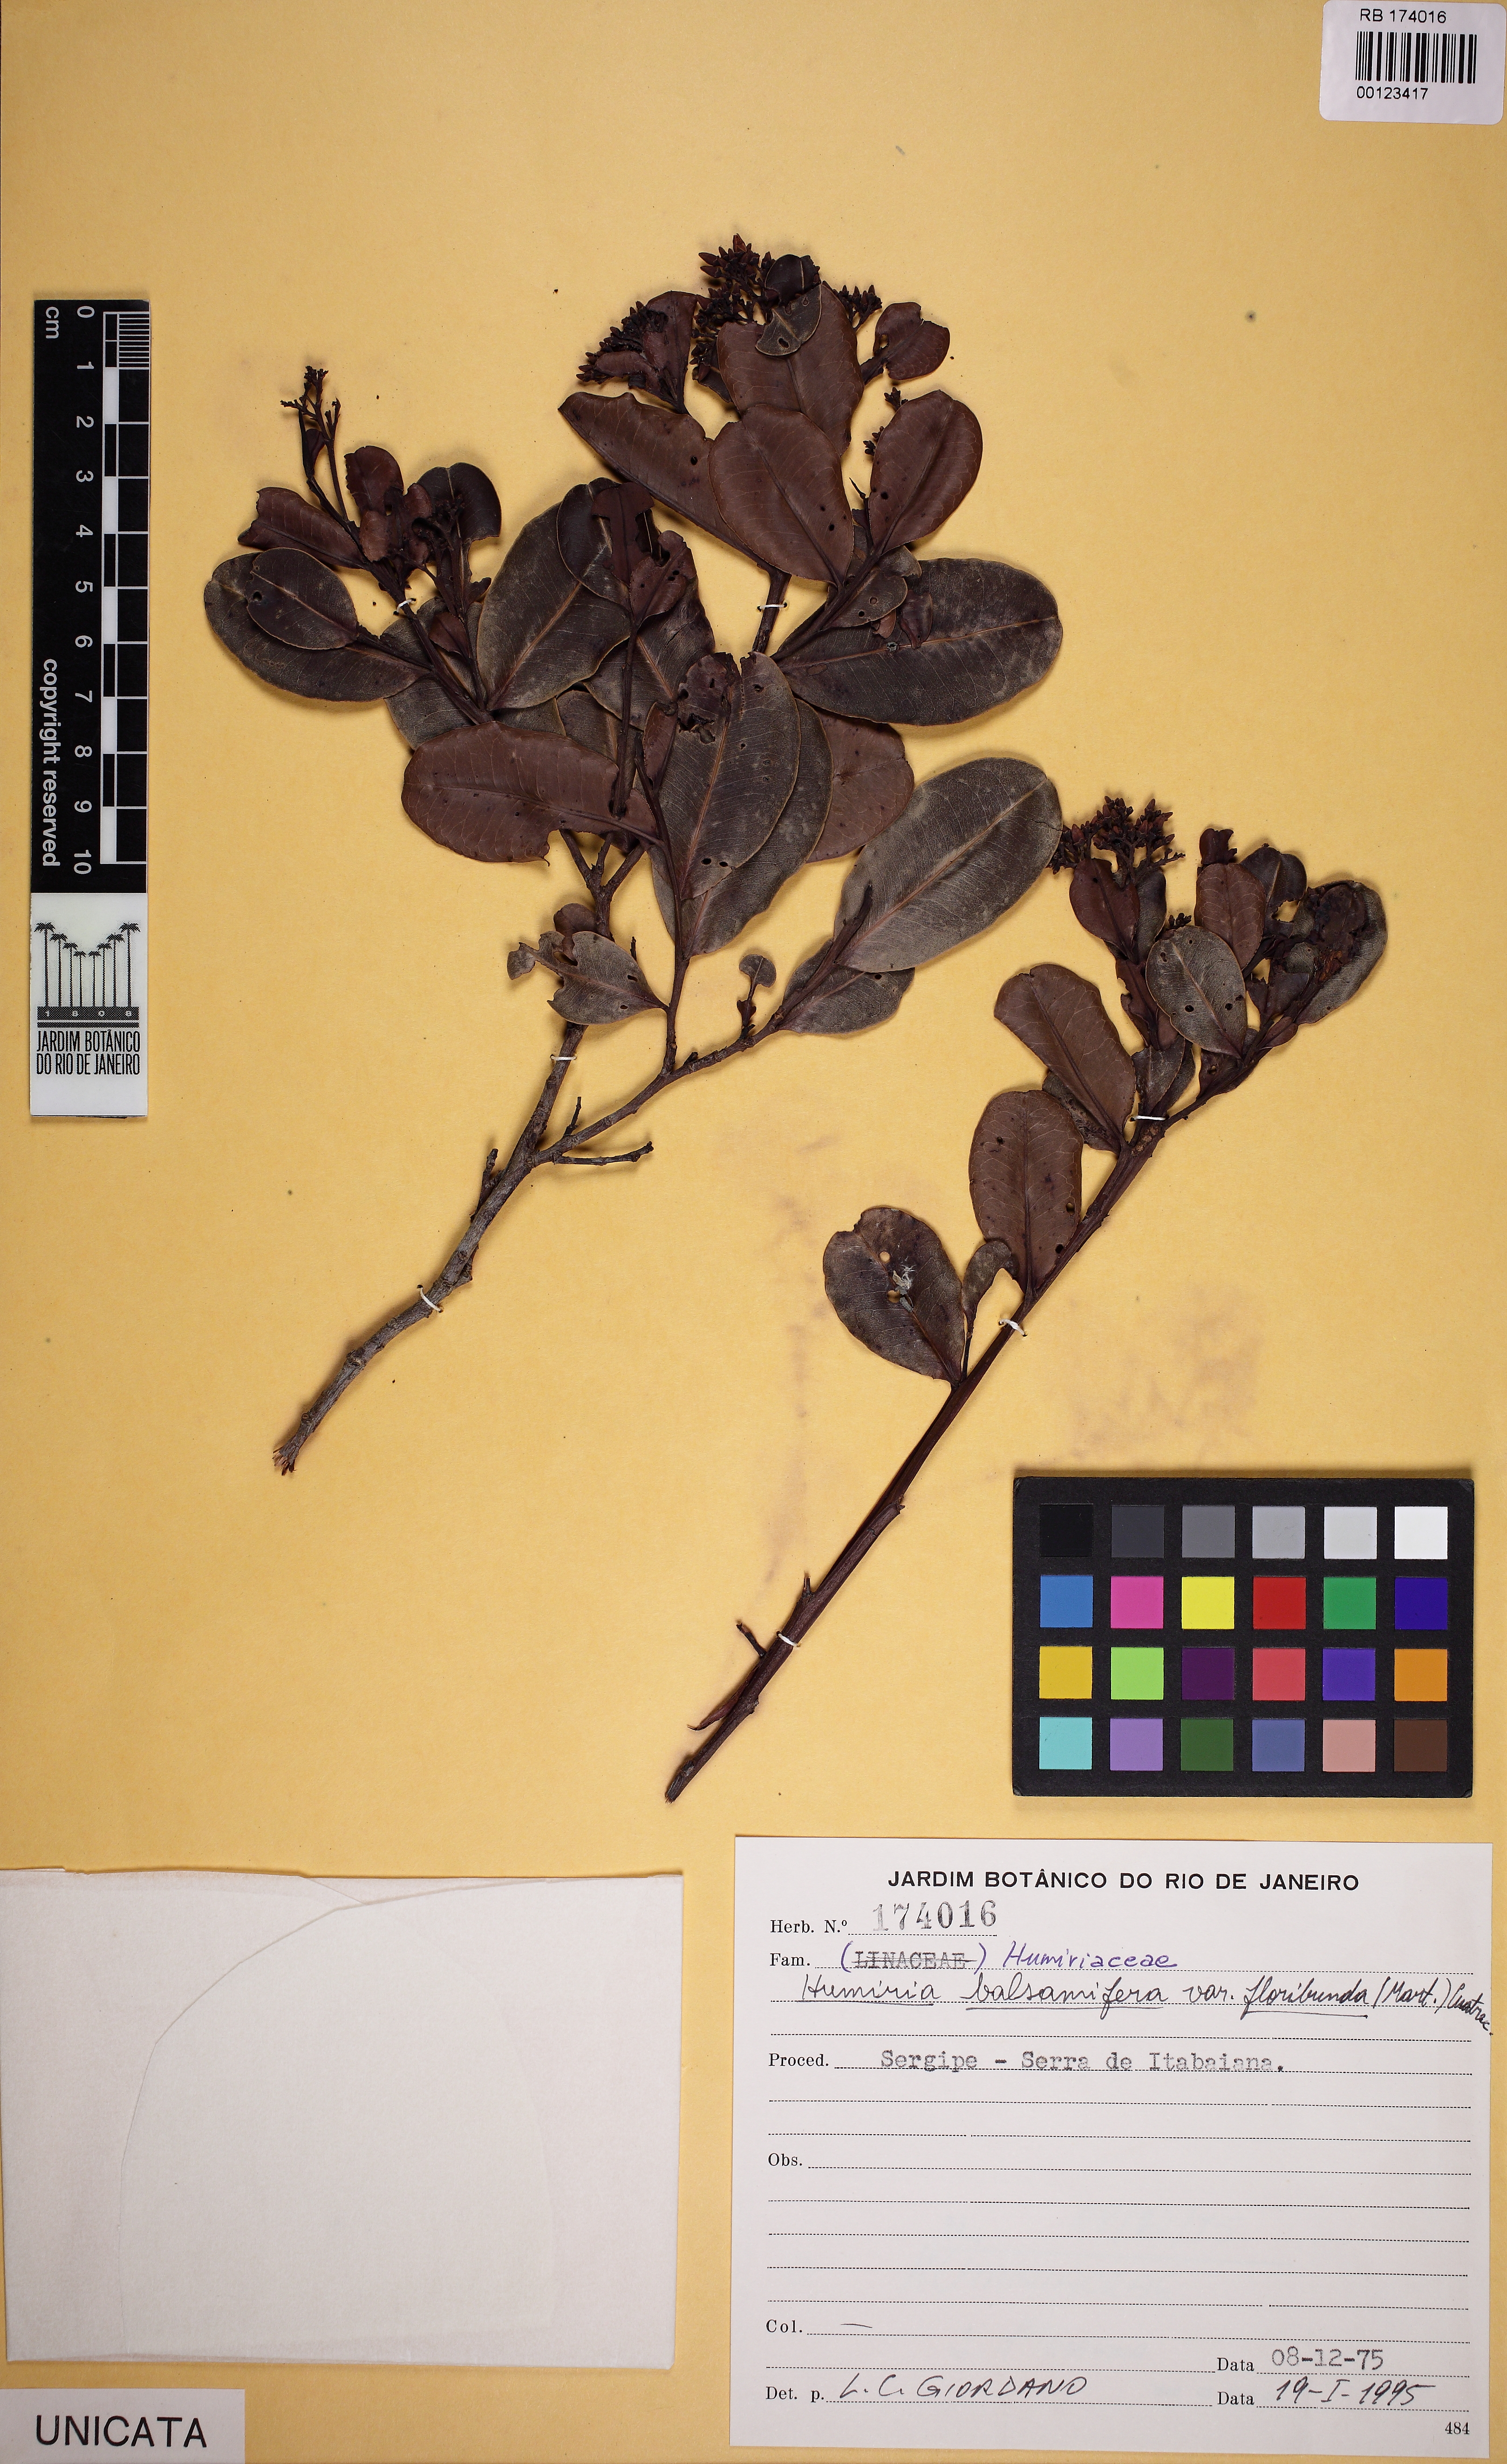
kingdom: Plantae
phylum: Tracheophyta
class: Magnoliopsida
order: Malpighiales
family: Humiriaceae
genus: Humiria
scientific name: Humiria balsamifera
